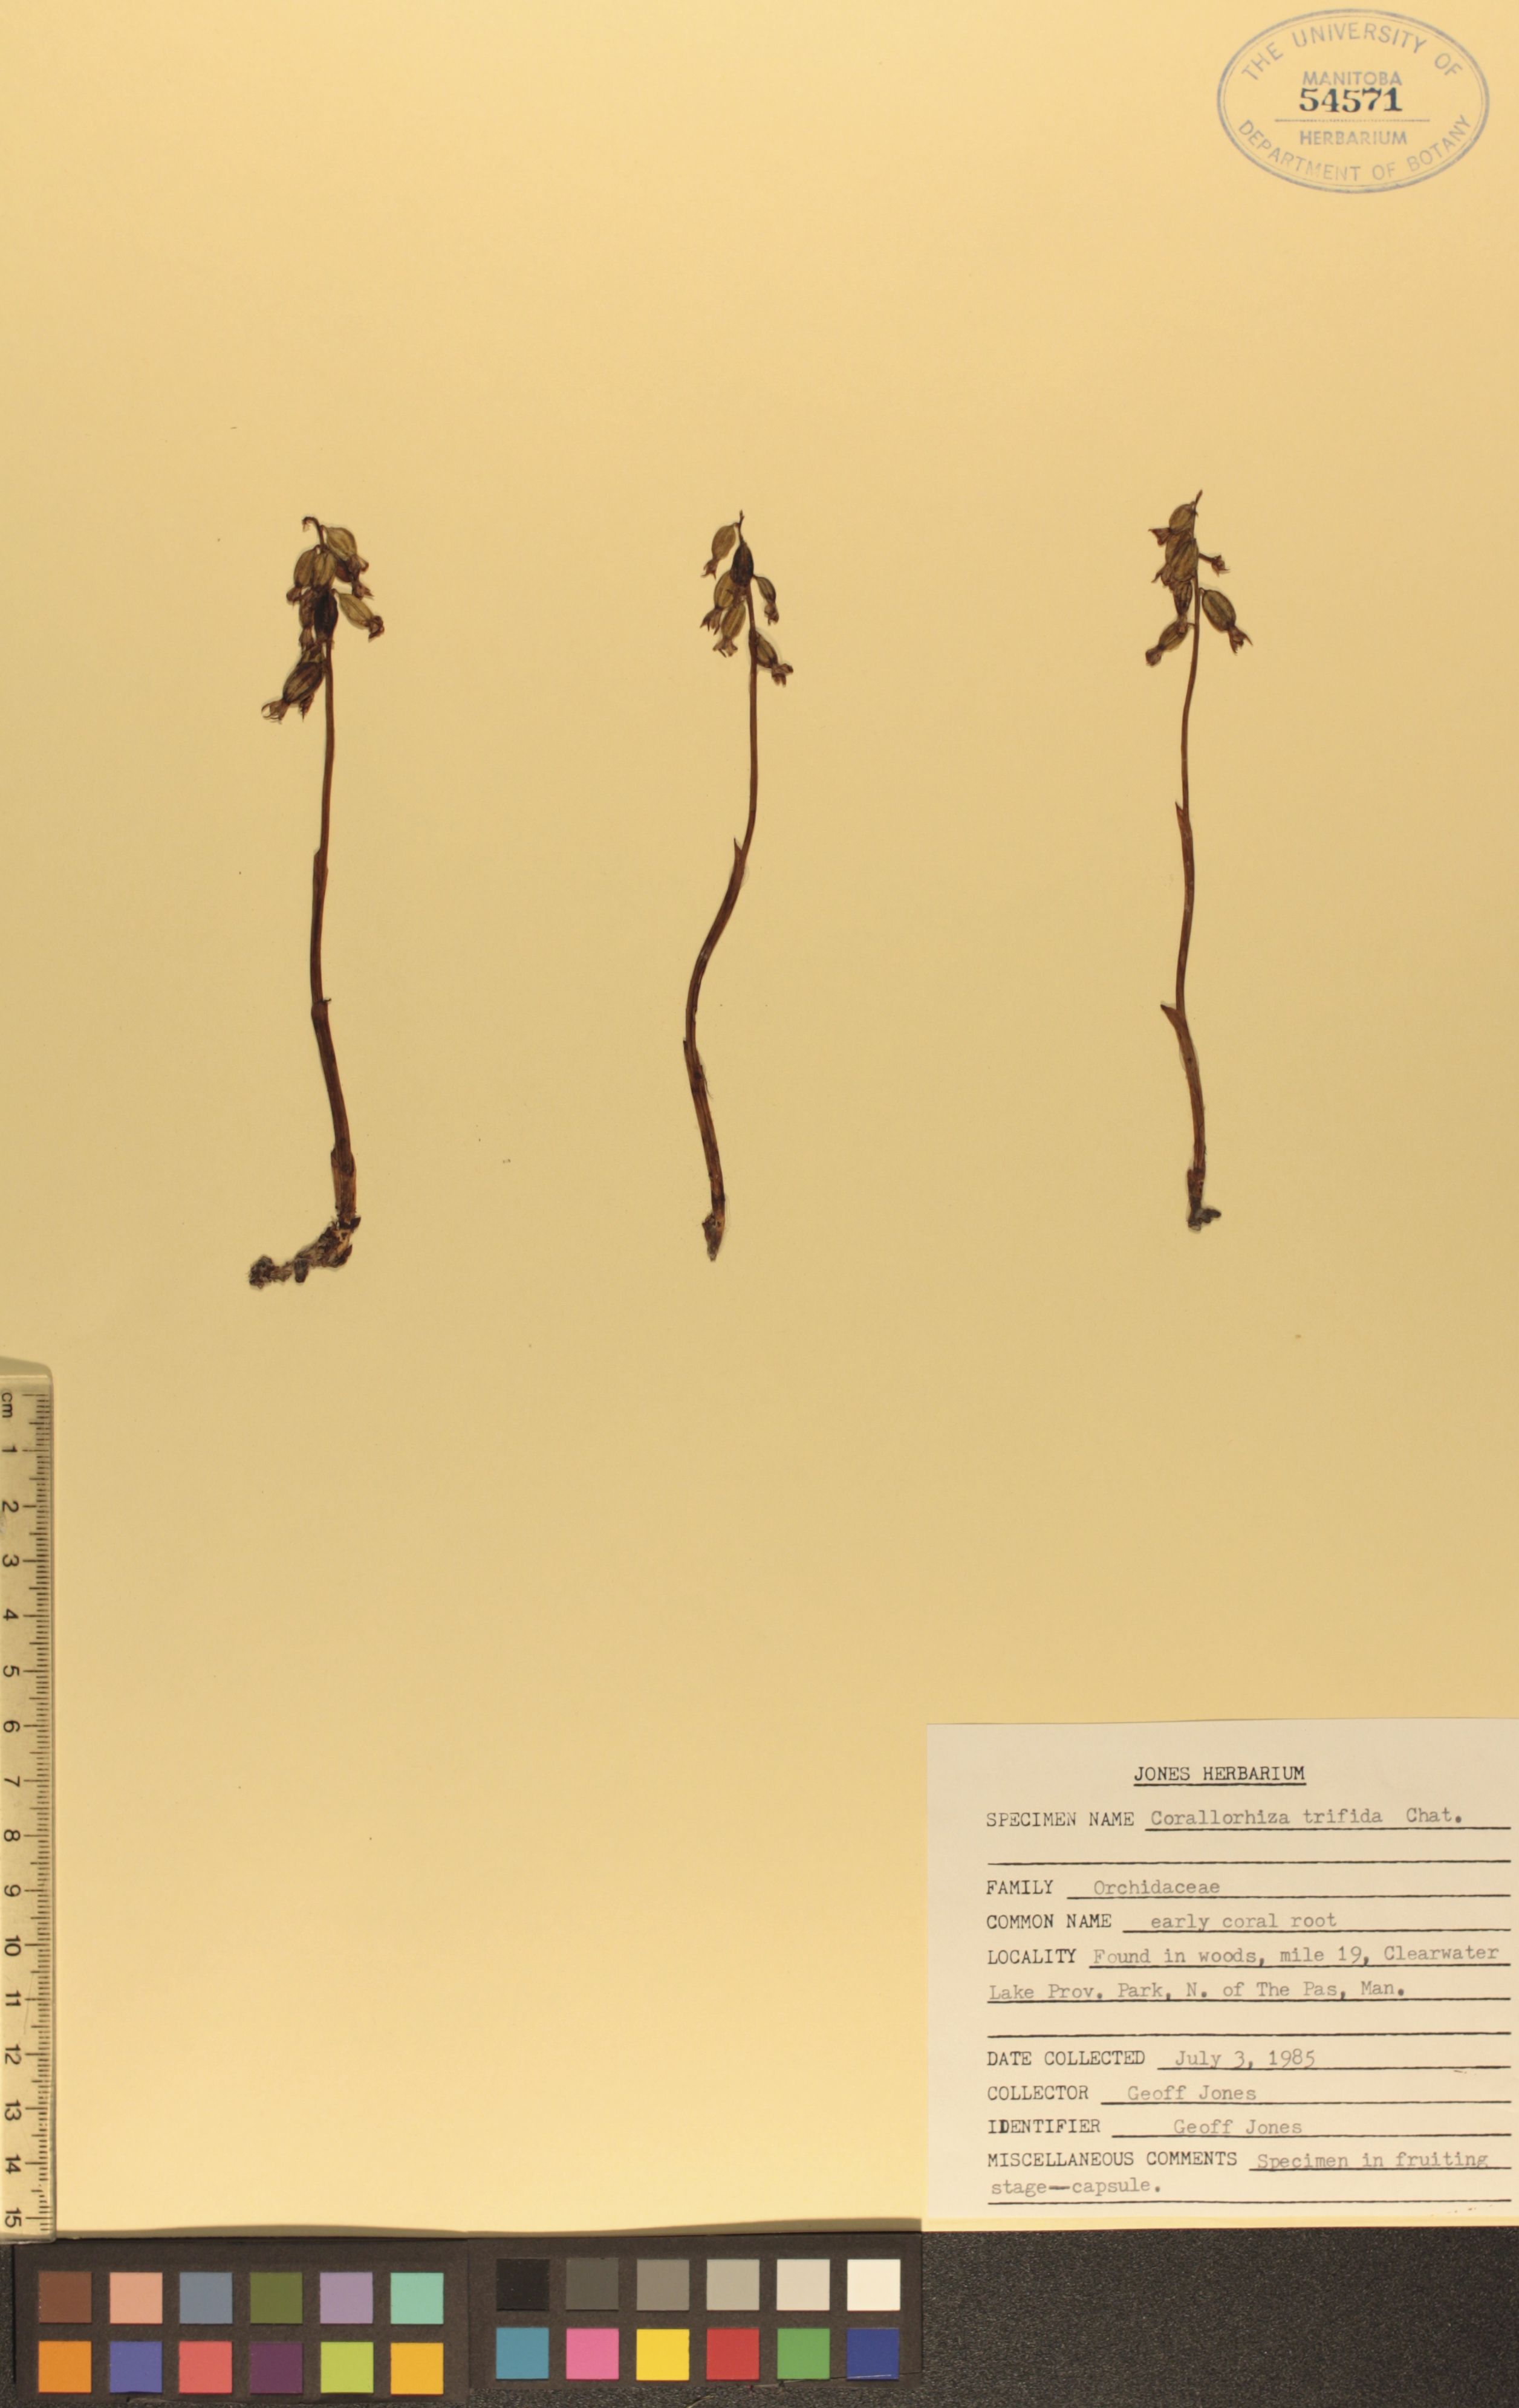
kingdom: Plantae
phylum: Tracheophyta
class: Liliopsida
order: Asparagales
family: Orchidaceae
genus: Corallorhiza
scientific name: Corallorhiza trifida
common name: Yellow coralroot
